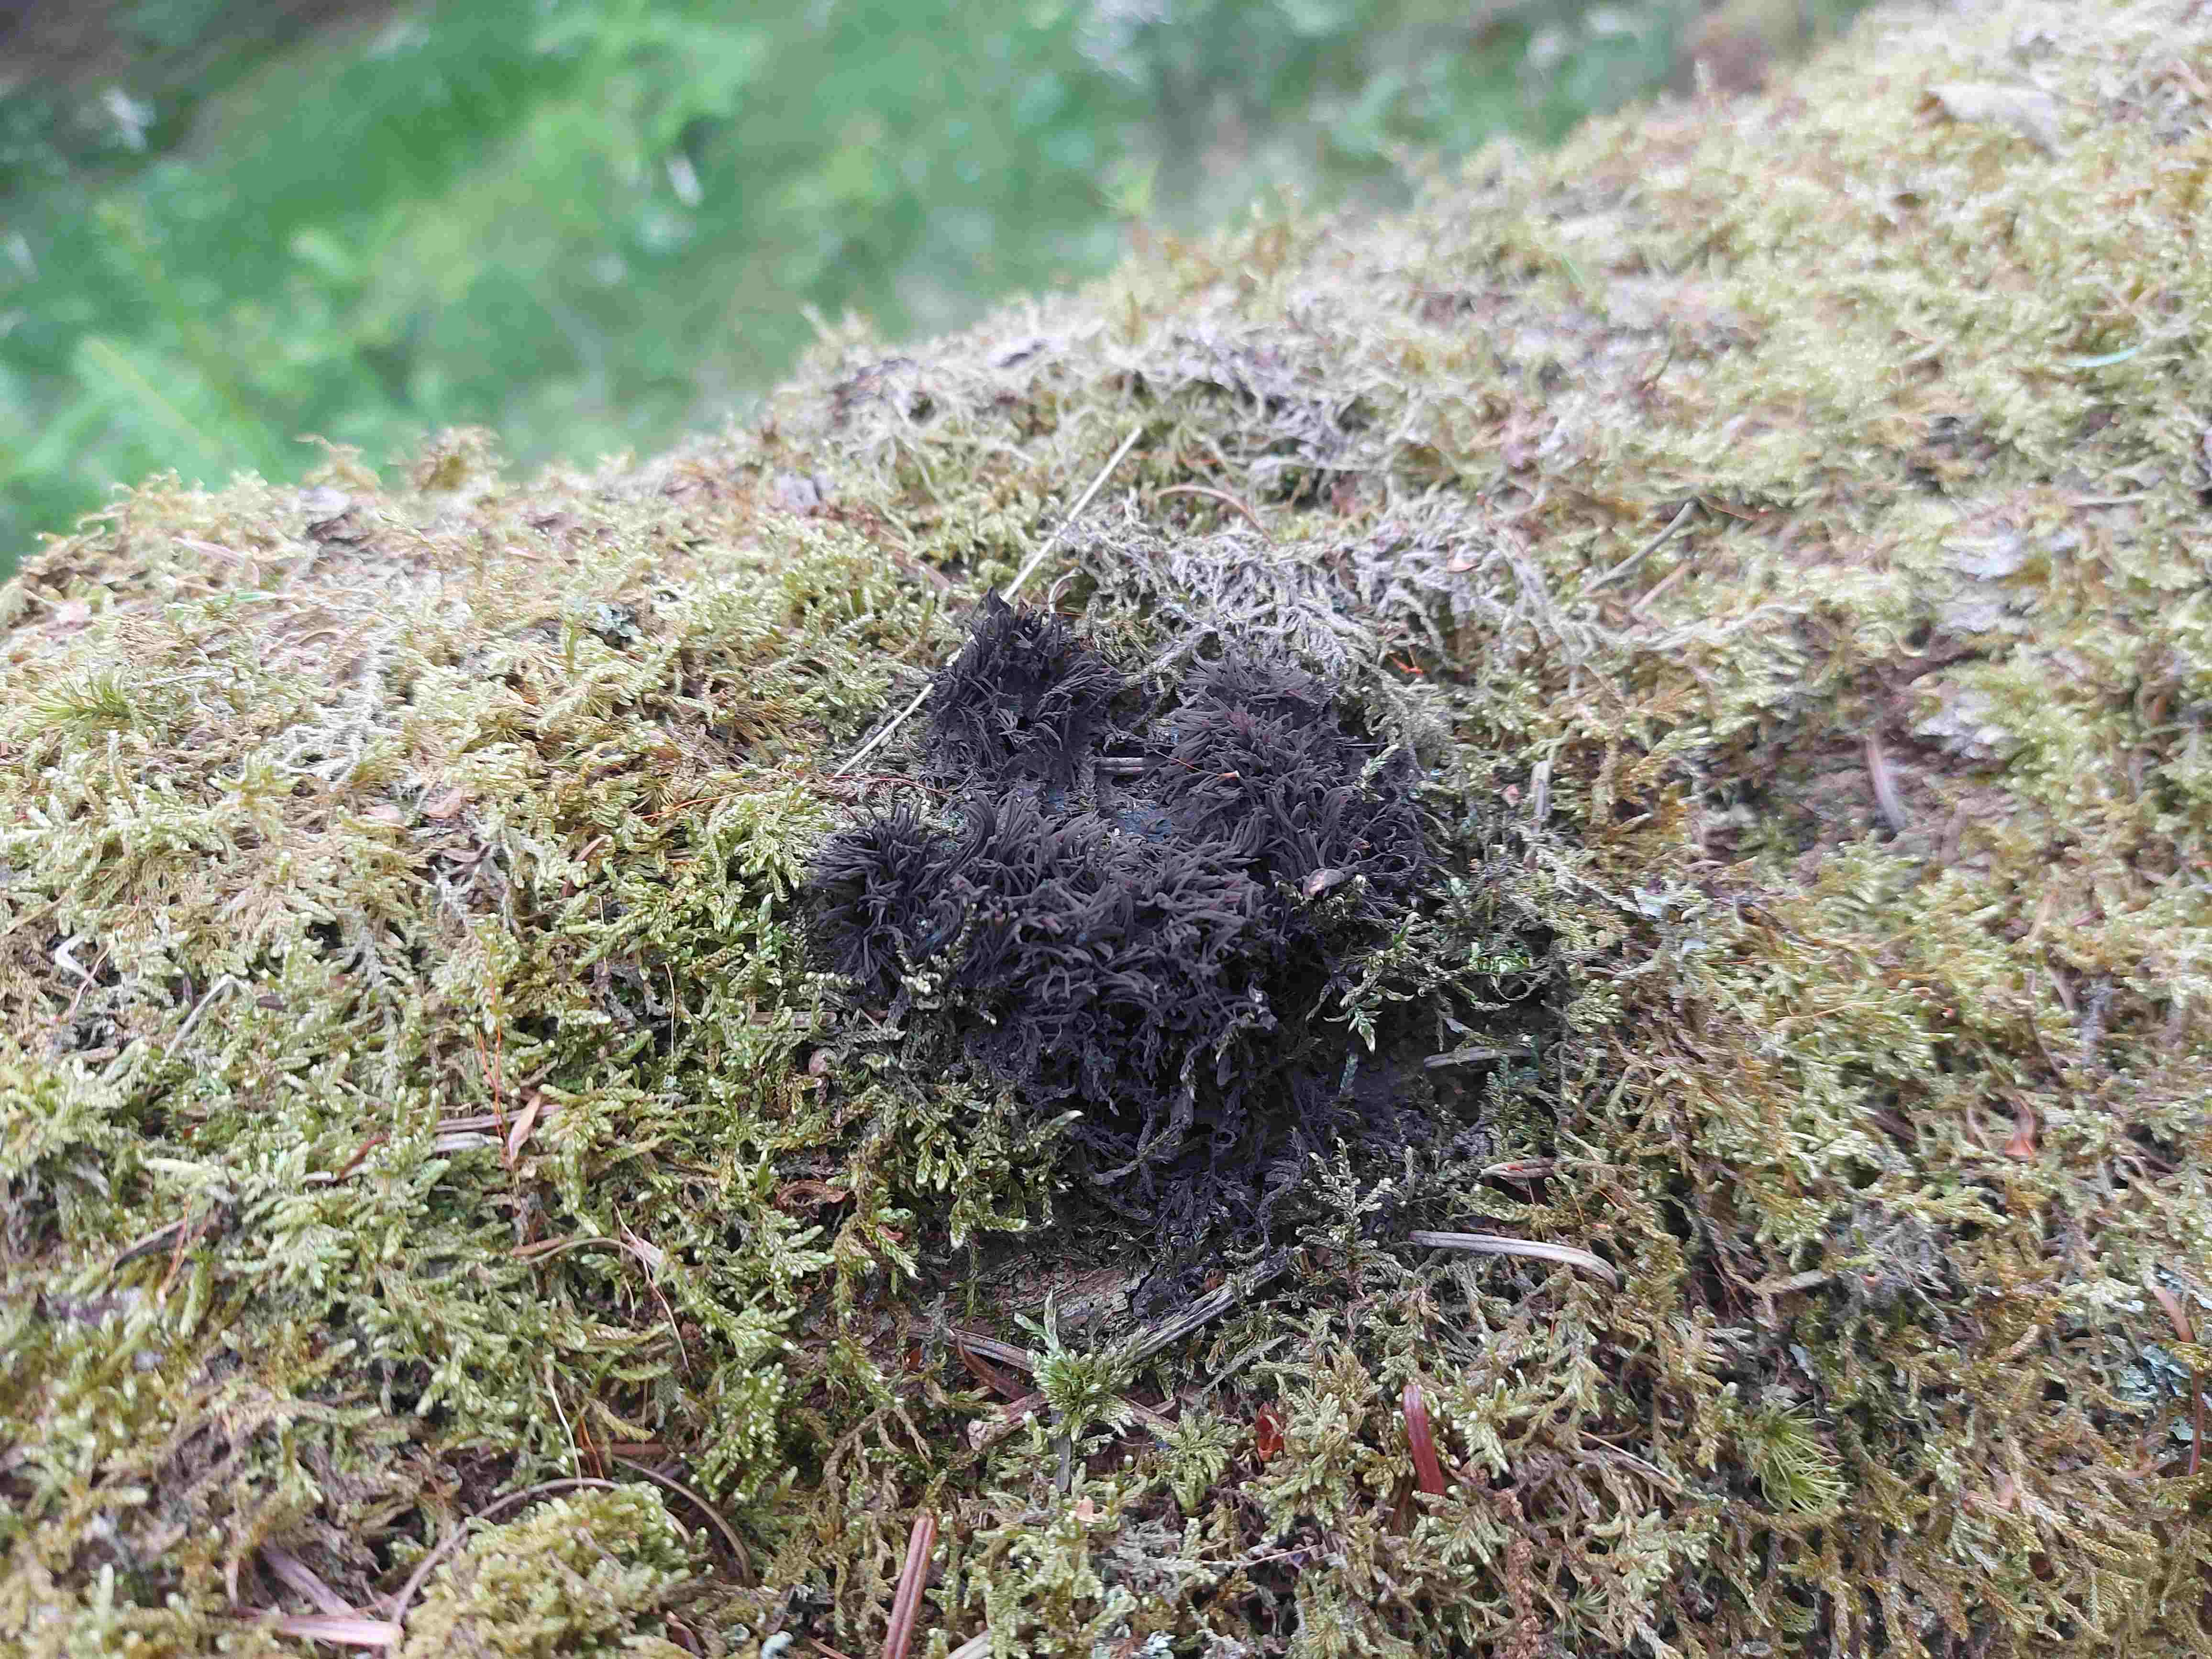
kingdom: Protozoa
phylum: Mycetozoa
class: Myxomycetes
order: Stemonitidales
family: Stemonitidaceae
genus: Stemonitis
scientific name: Stemonitis
